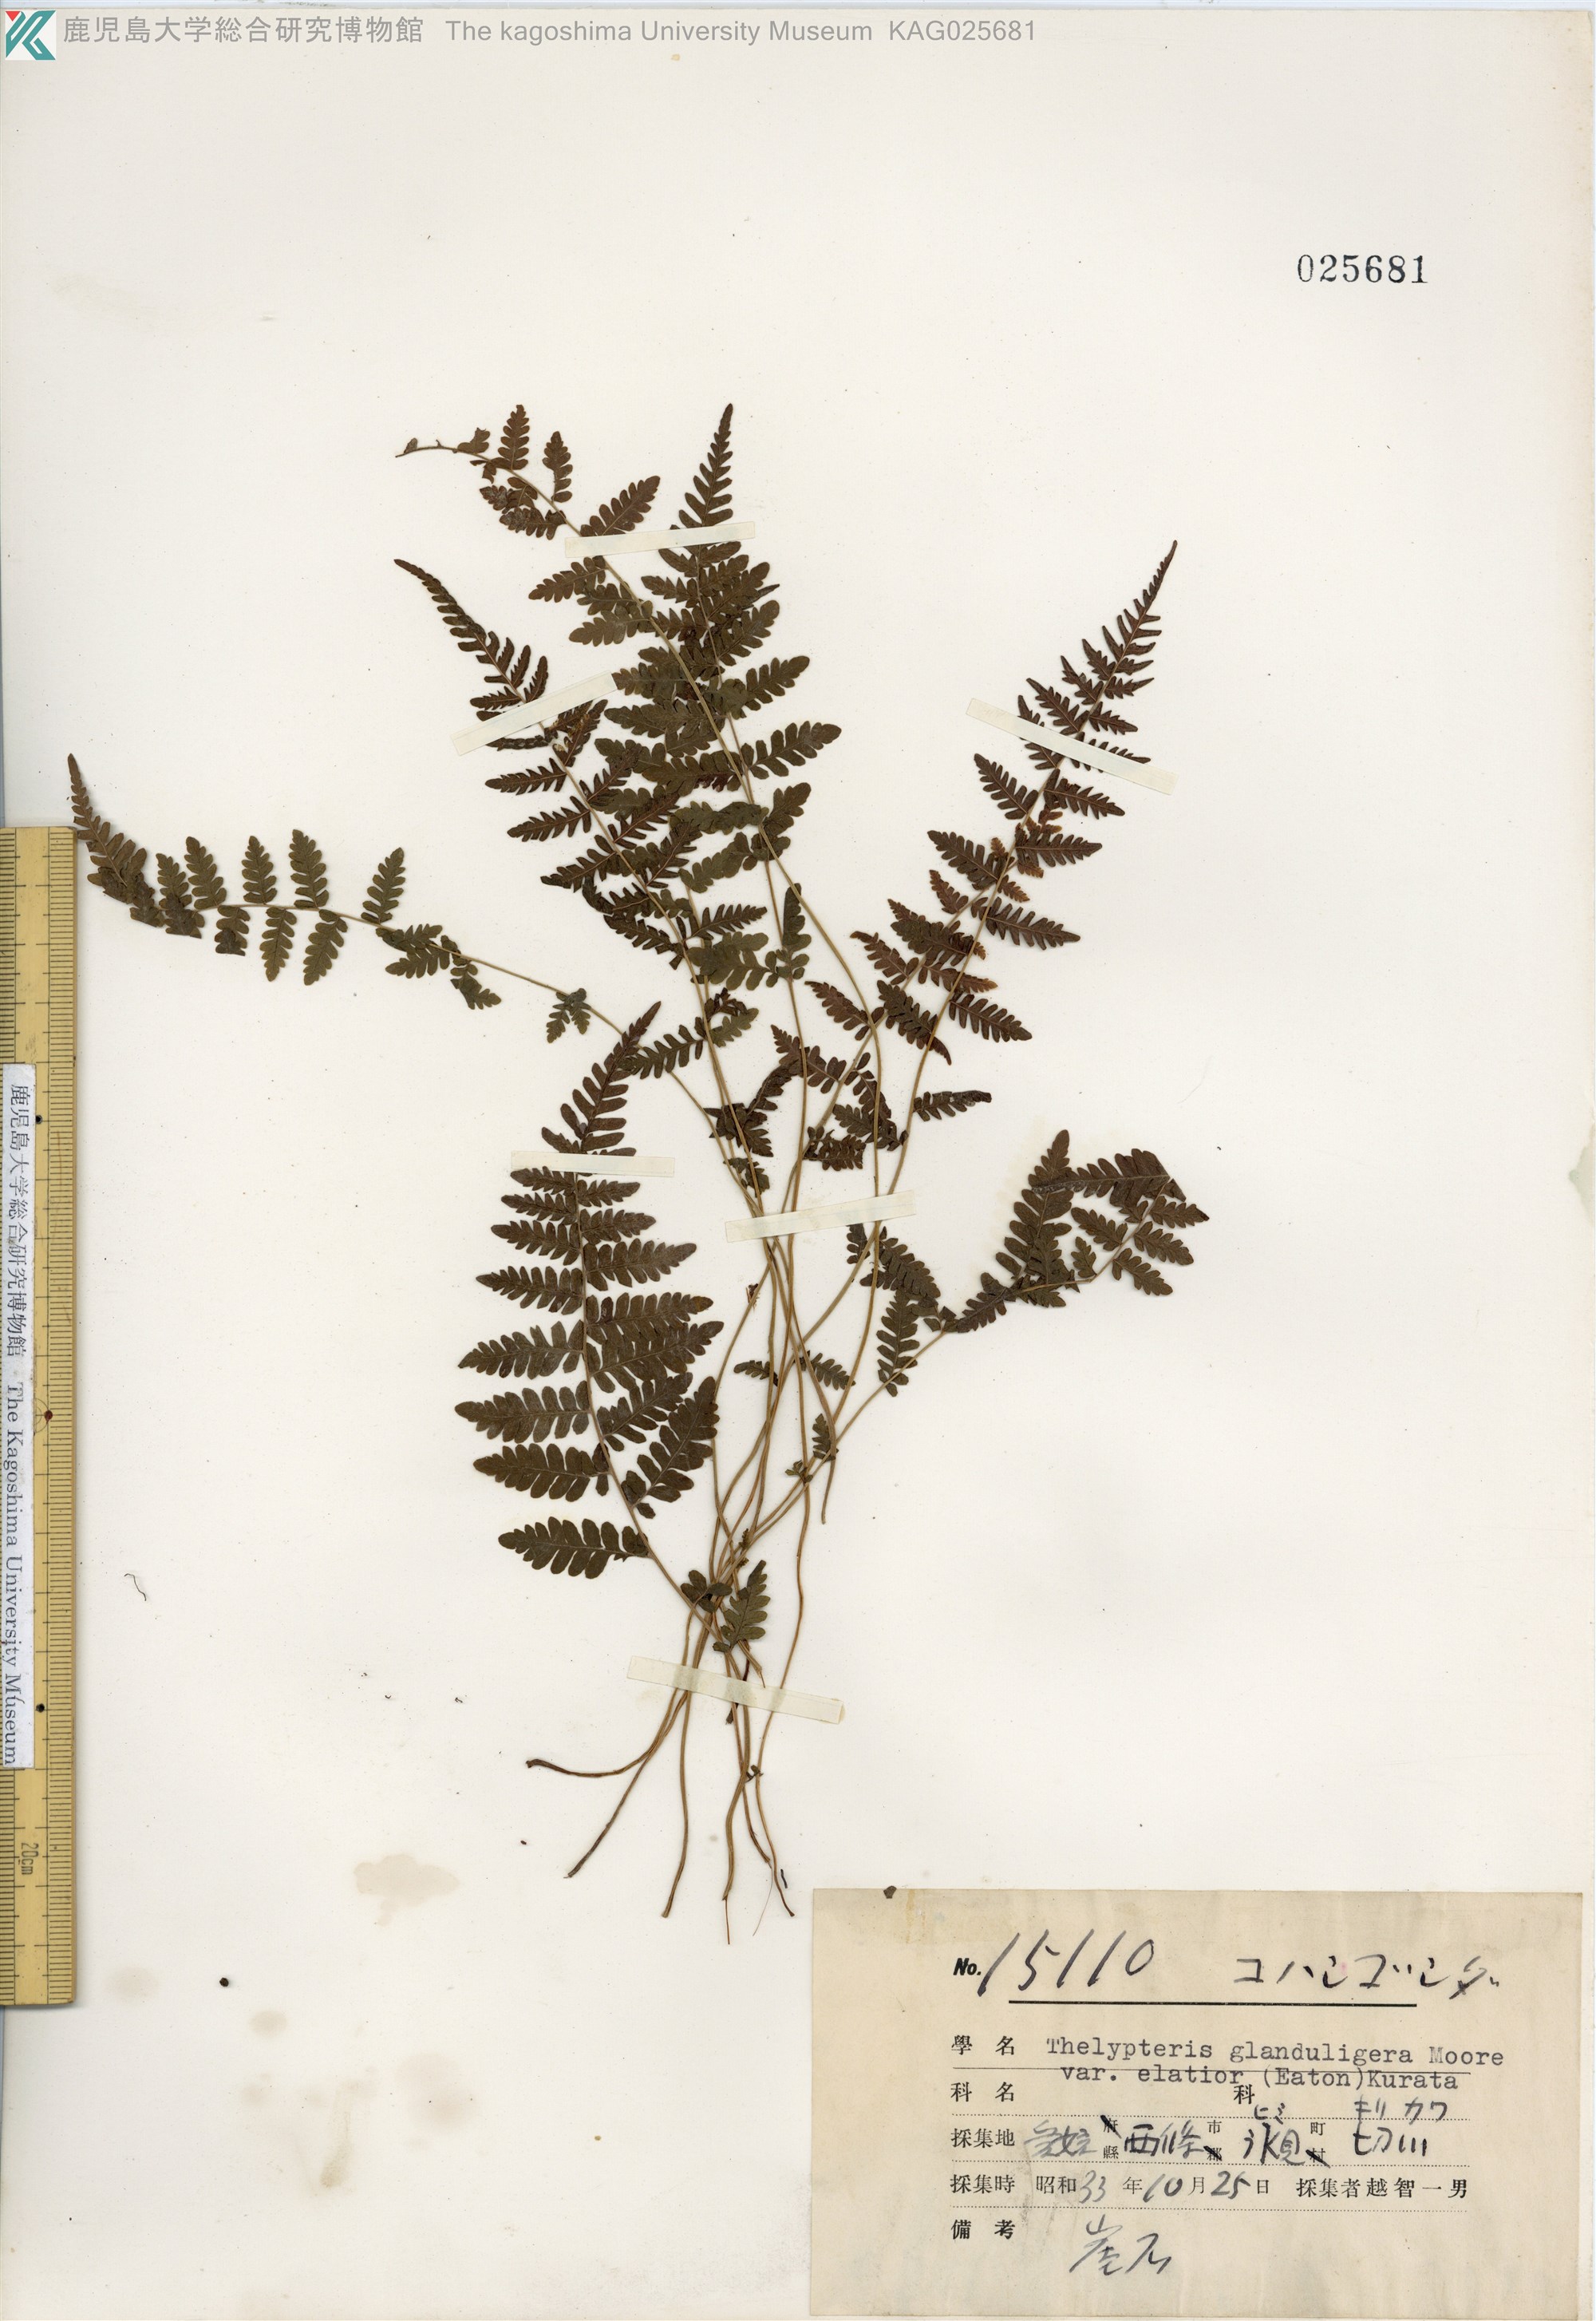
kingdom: Plantae
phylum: Tracheophyta
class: Polypodiopsida
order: Polypodiales
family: Thelypteridaceae
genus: Amauropelta
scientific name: Amauropelta angustifrons
